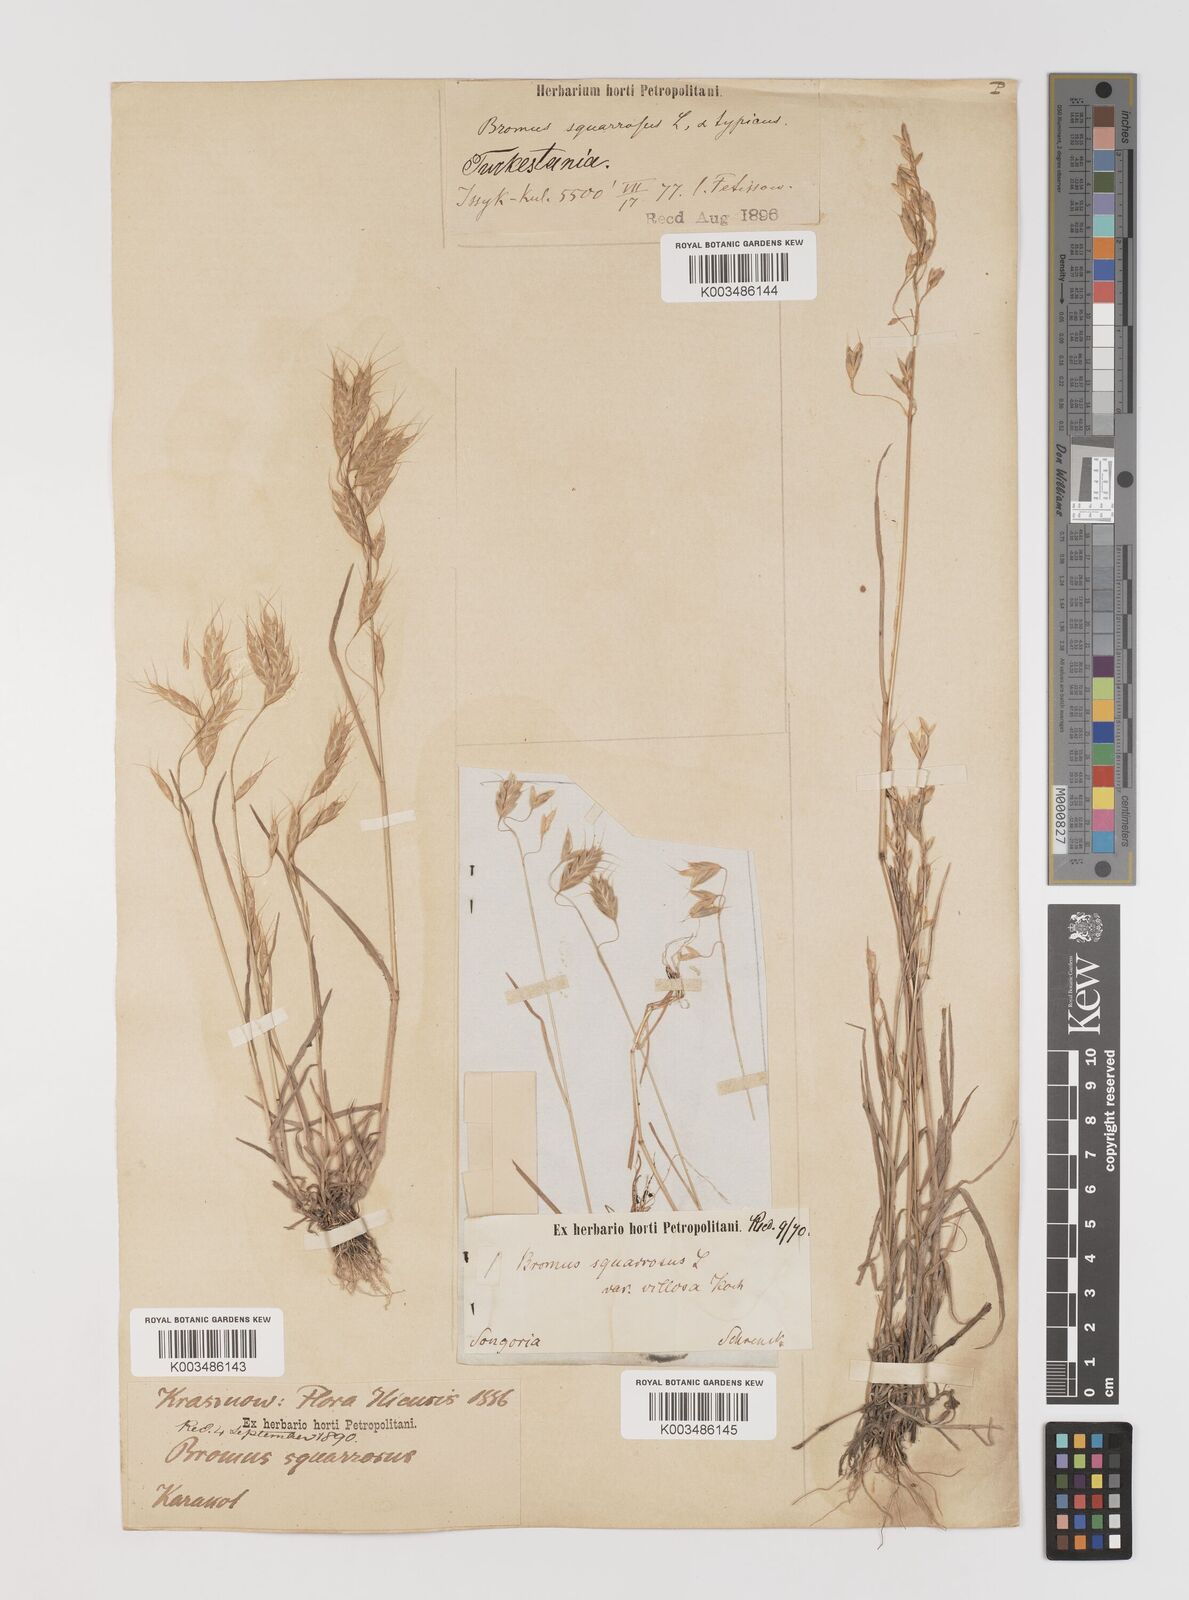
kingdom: Plantae
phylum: Tracheophyta
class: Liliopsida
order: Poales
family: Poaceae
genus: Bromus
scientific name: Bromus squarrosus
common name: Corn brome
